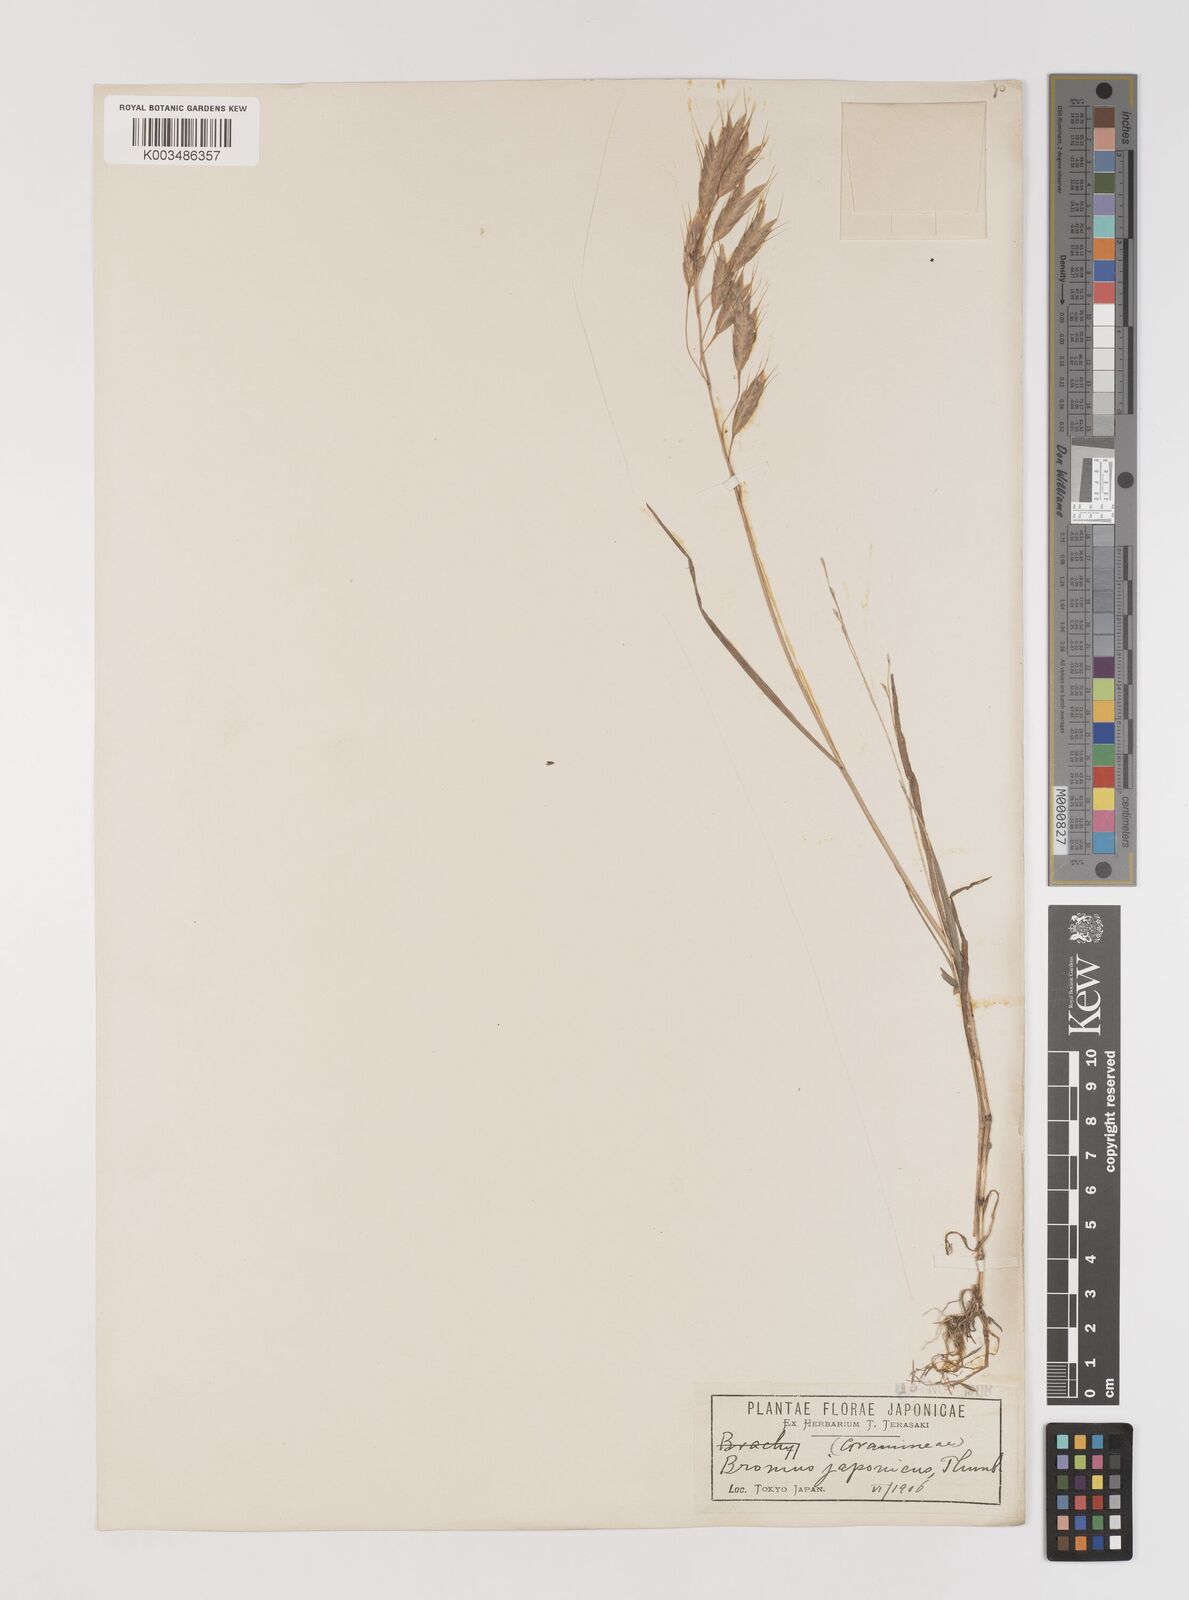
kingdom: Plantae
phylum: Tracheophyta
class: Liliopsida
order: Poales
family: Poaceae
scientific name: Poaceae
